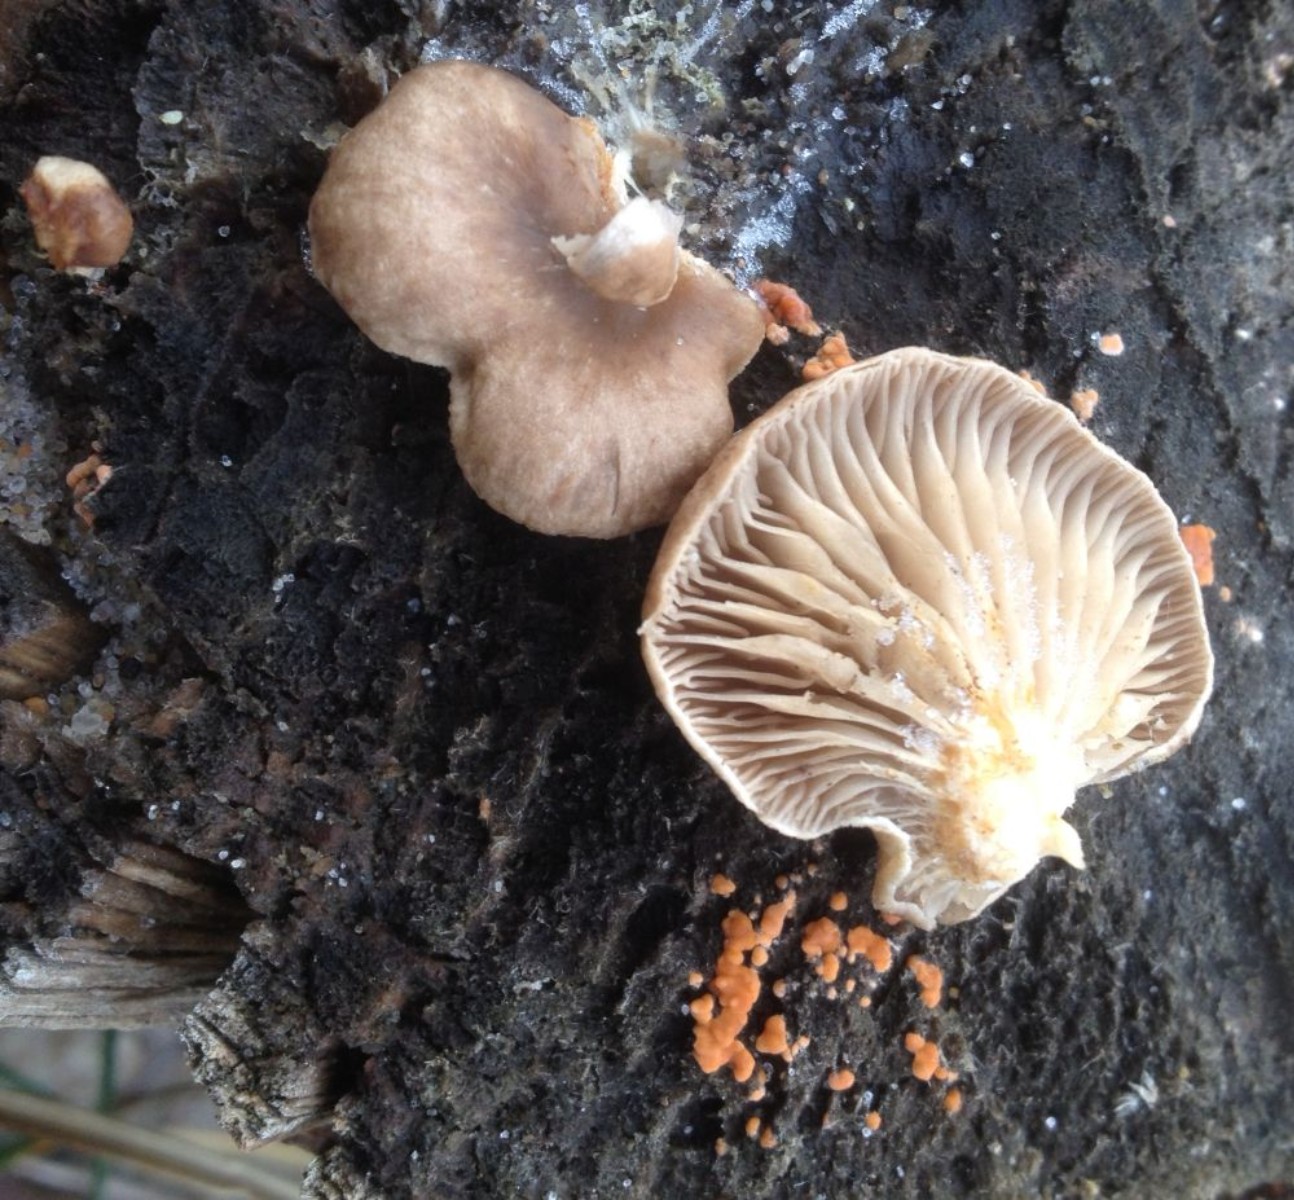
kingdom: Fungi
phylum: Basidiomycota
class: Agaricomycetes
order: Agaricales
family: Pleurotaceae
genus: Pleurotus
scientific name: Pleurotus
